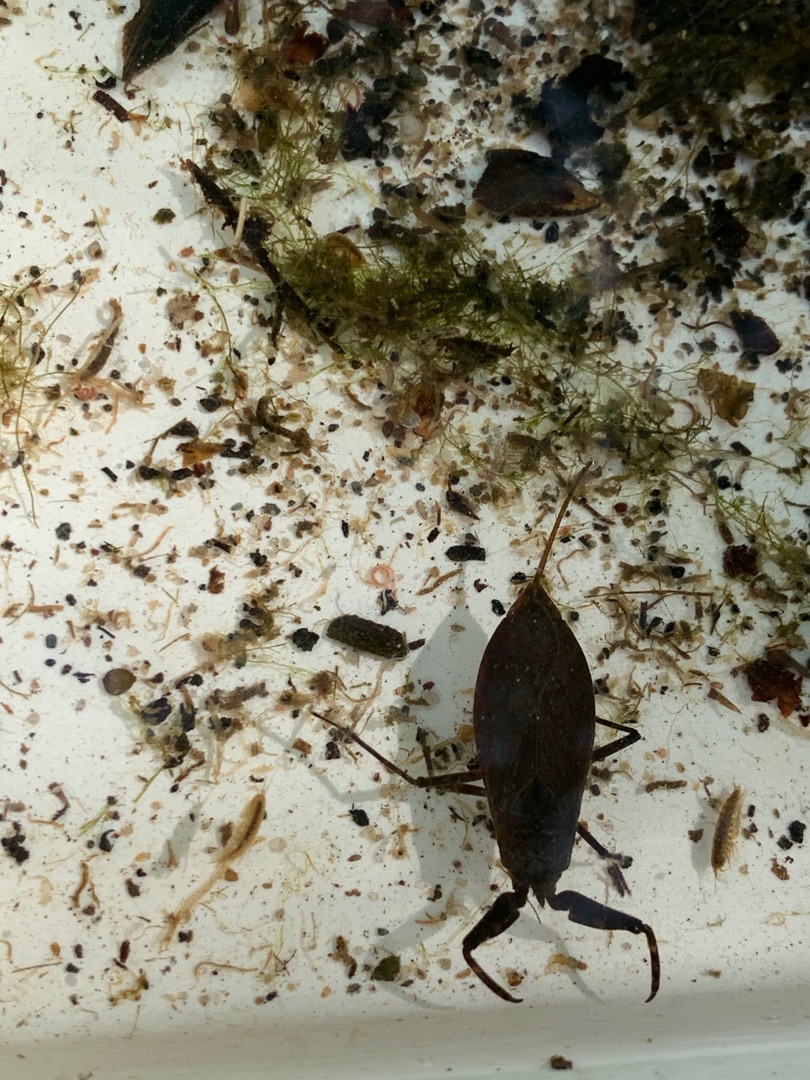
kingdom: Animalia
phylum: Arthropoda
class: Insecta
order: Hemiptera
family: Nepidae
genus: Nepa
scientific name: Nepa cinerea
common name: Skorpiontæge
